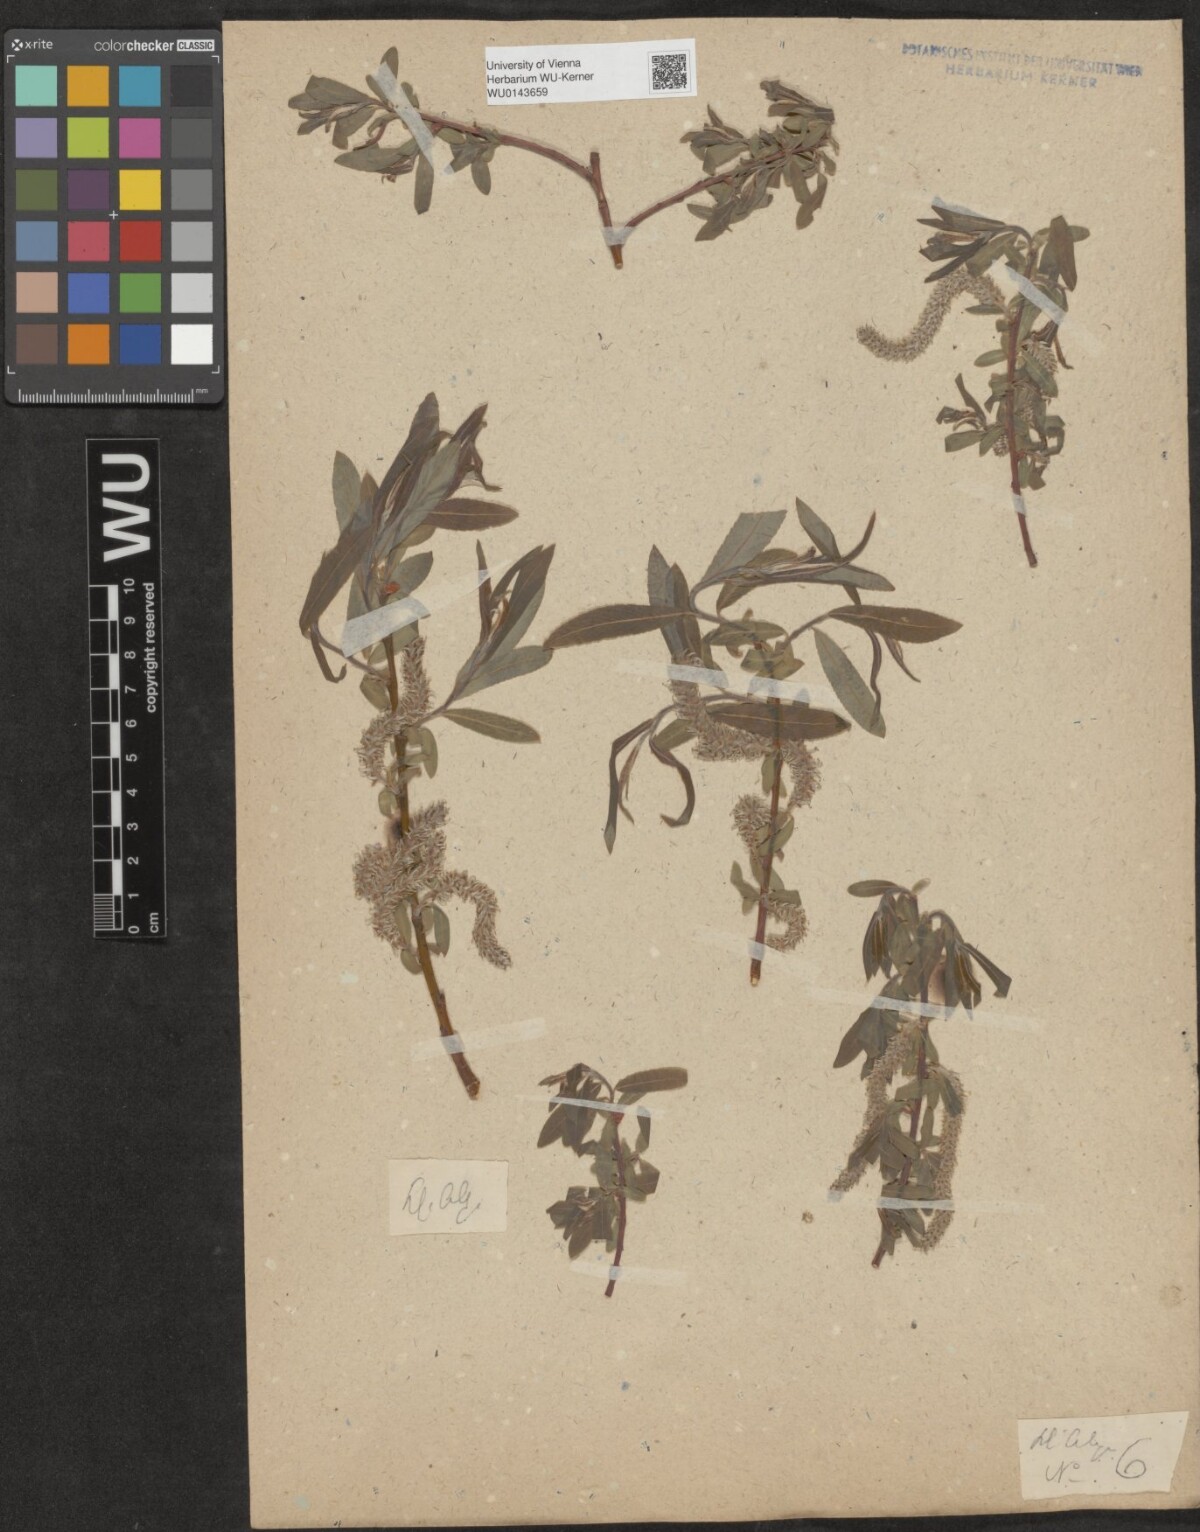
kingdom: Plantae
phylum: Tracheophyta
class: Magnoliopsida
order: Malpighiales
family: Salicaceae
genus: Salix
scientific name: Salix
